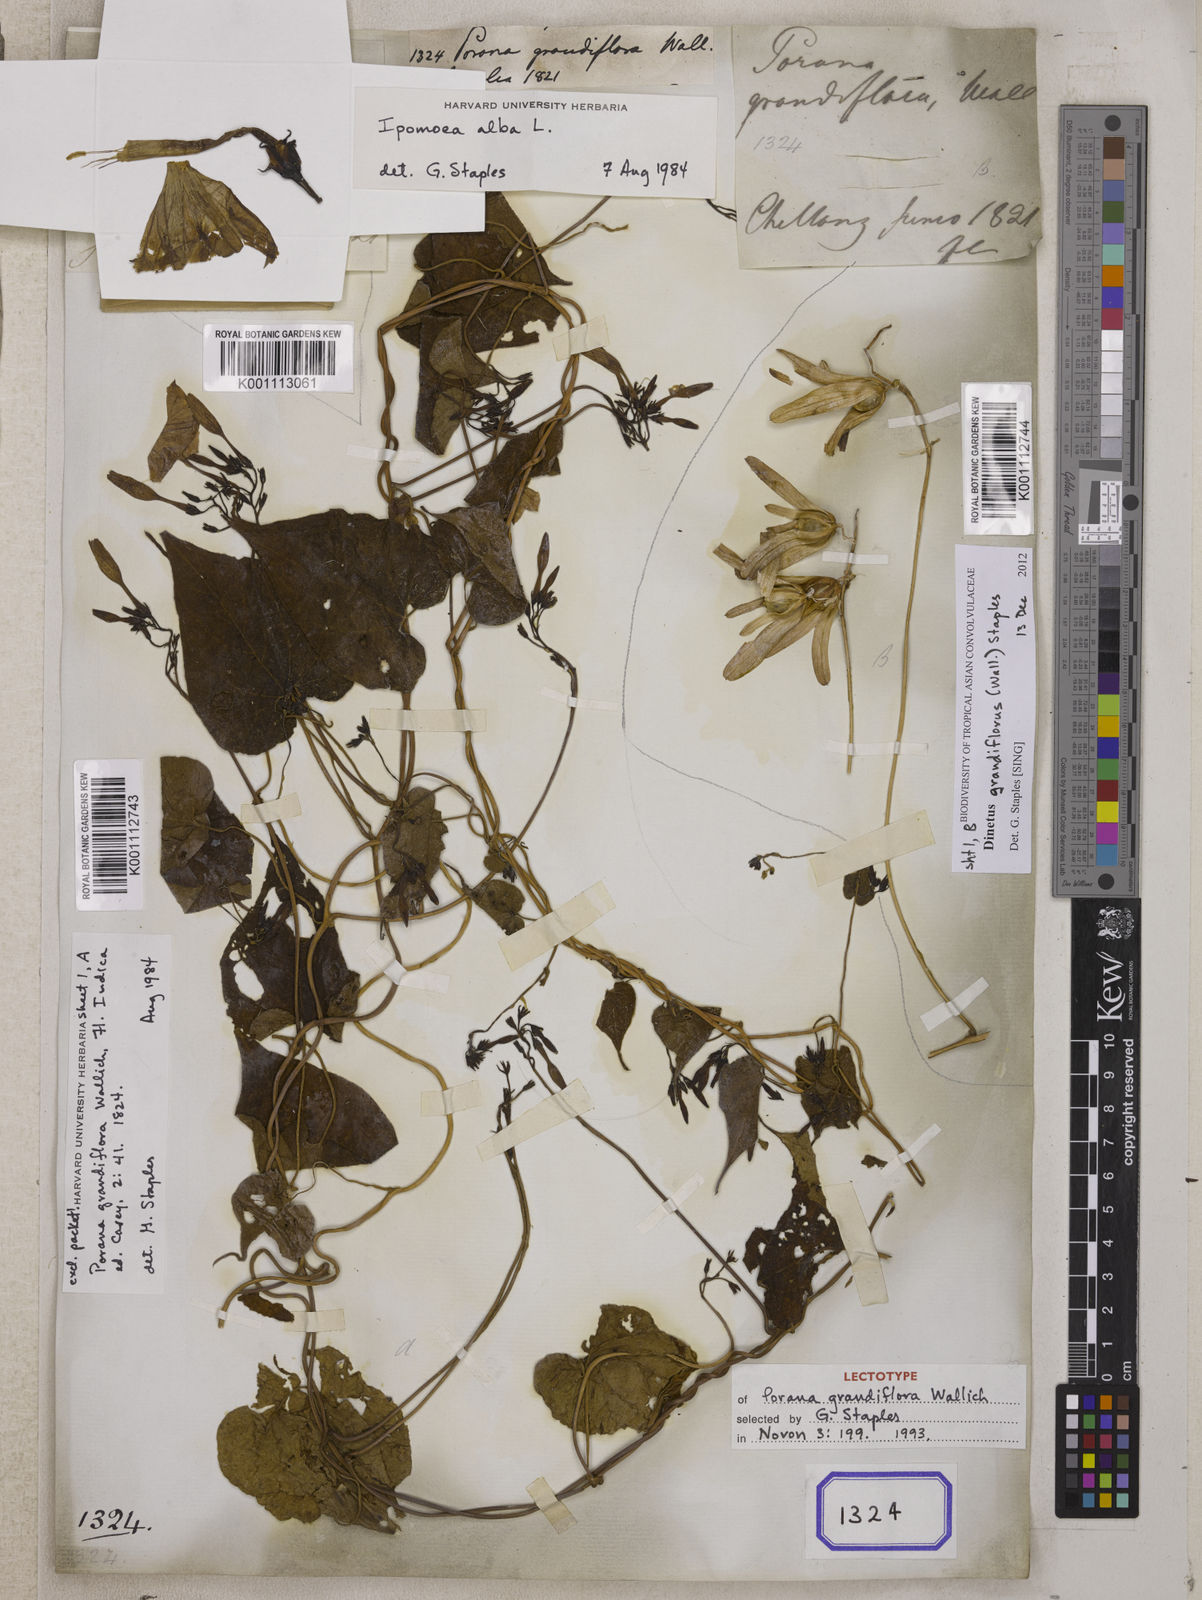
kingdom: Plantae
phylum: Tracheophyta
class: Magnoliopsida
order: Solanales
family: Convolvulaceae
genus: Dinetus
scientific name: Dinetus grandiflorus
